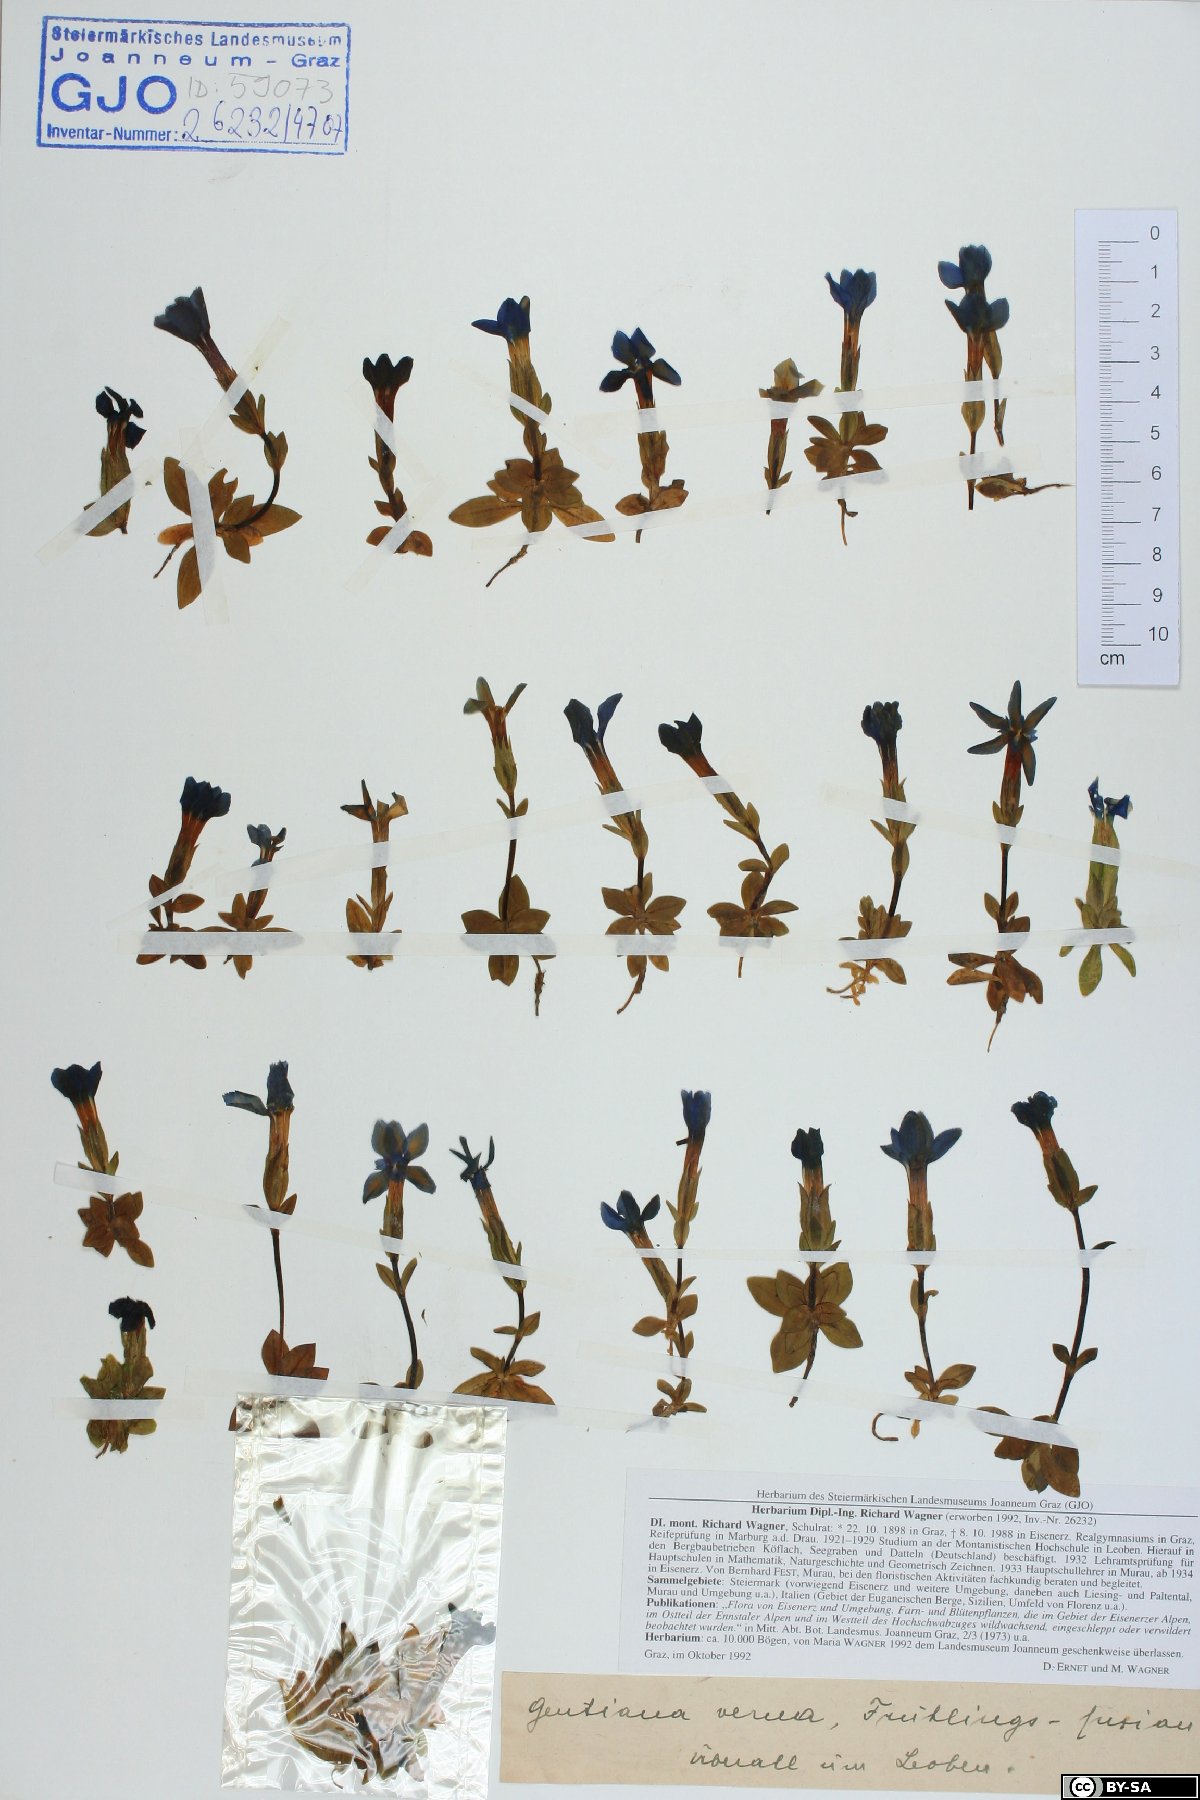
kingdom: Plantae
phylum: Tracheophyta
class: Magnoliopsida
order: Gentianales
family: Gentianaceae
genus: Gentiana
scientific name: Gentiana verna
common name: Spring gentian
